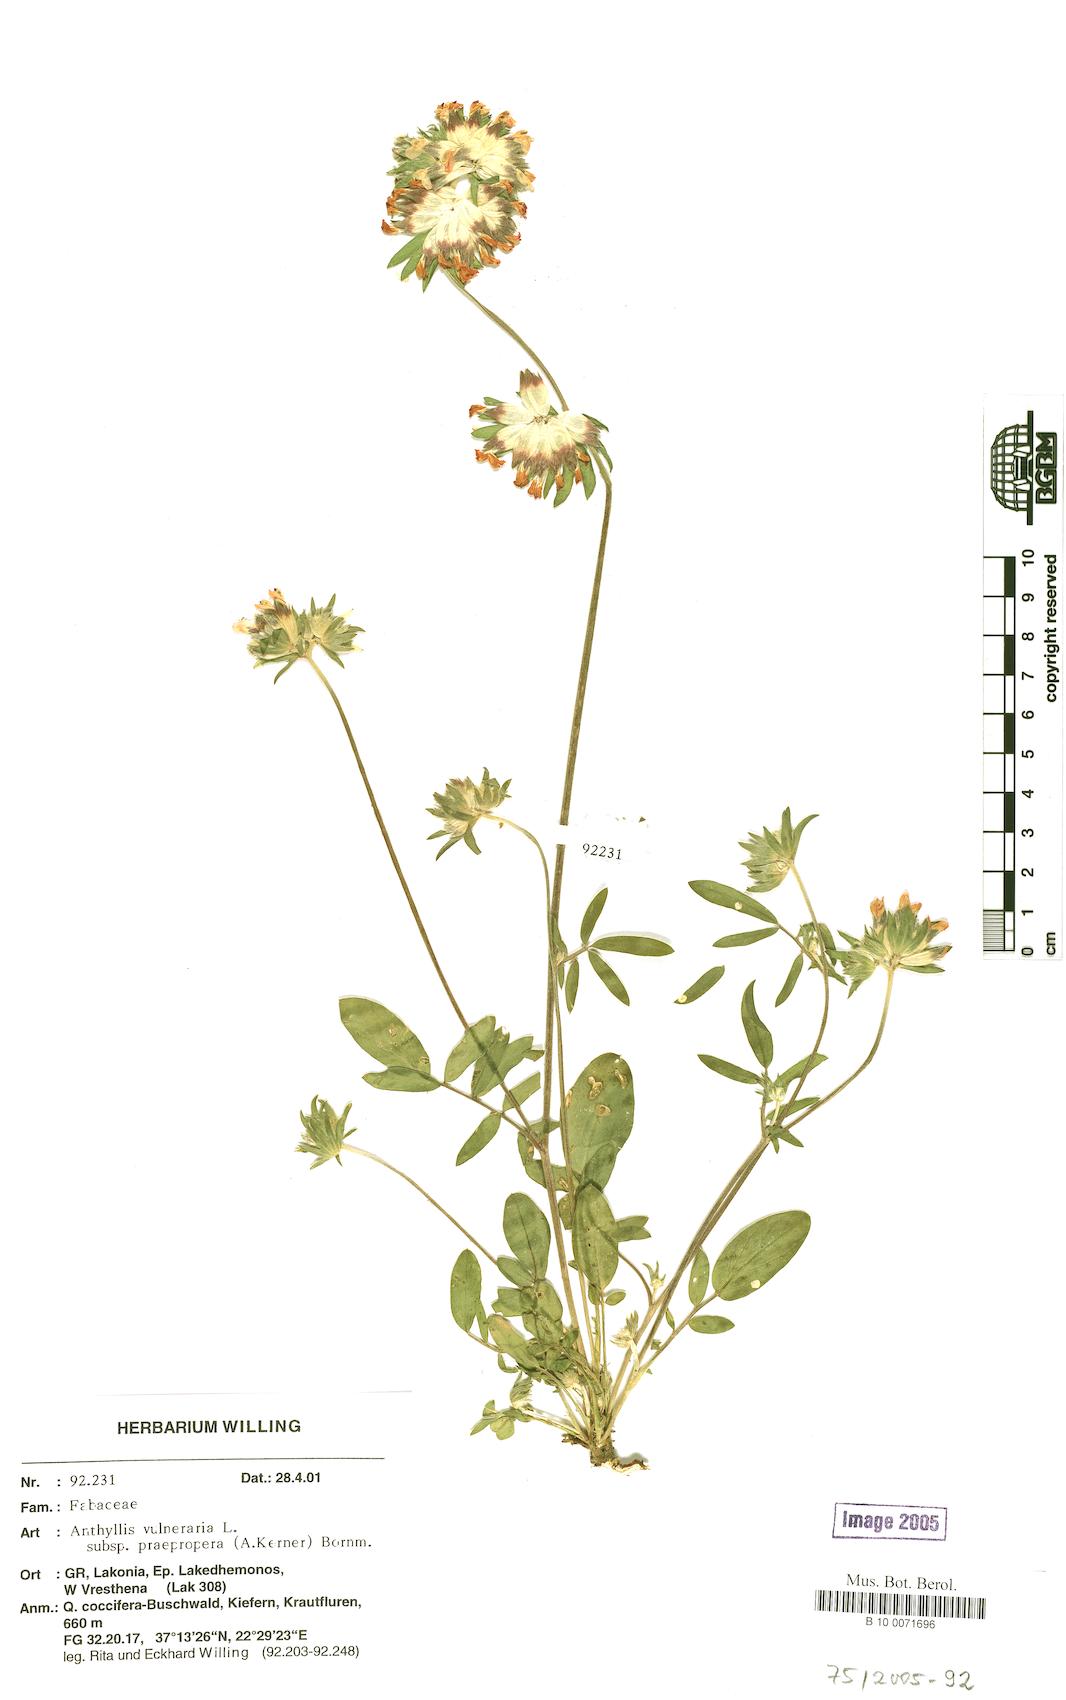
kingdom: Plantae
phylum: Tracheophyta
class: Magnoliopsida
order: Fabales
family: Fabaceae
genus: Anthyllis
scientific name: Anthyllis vulneraria
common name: Kidney vetch
